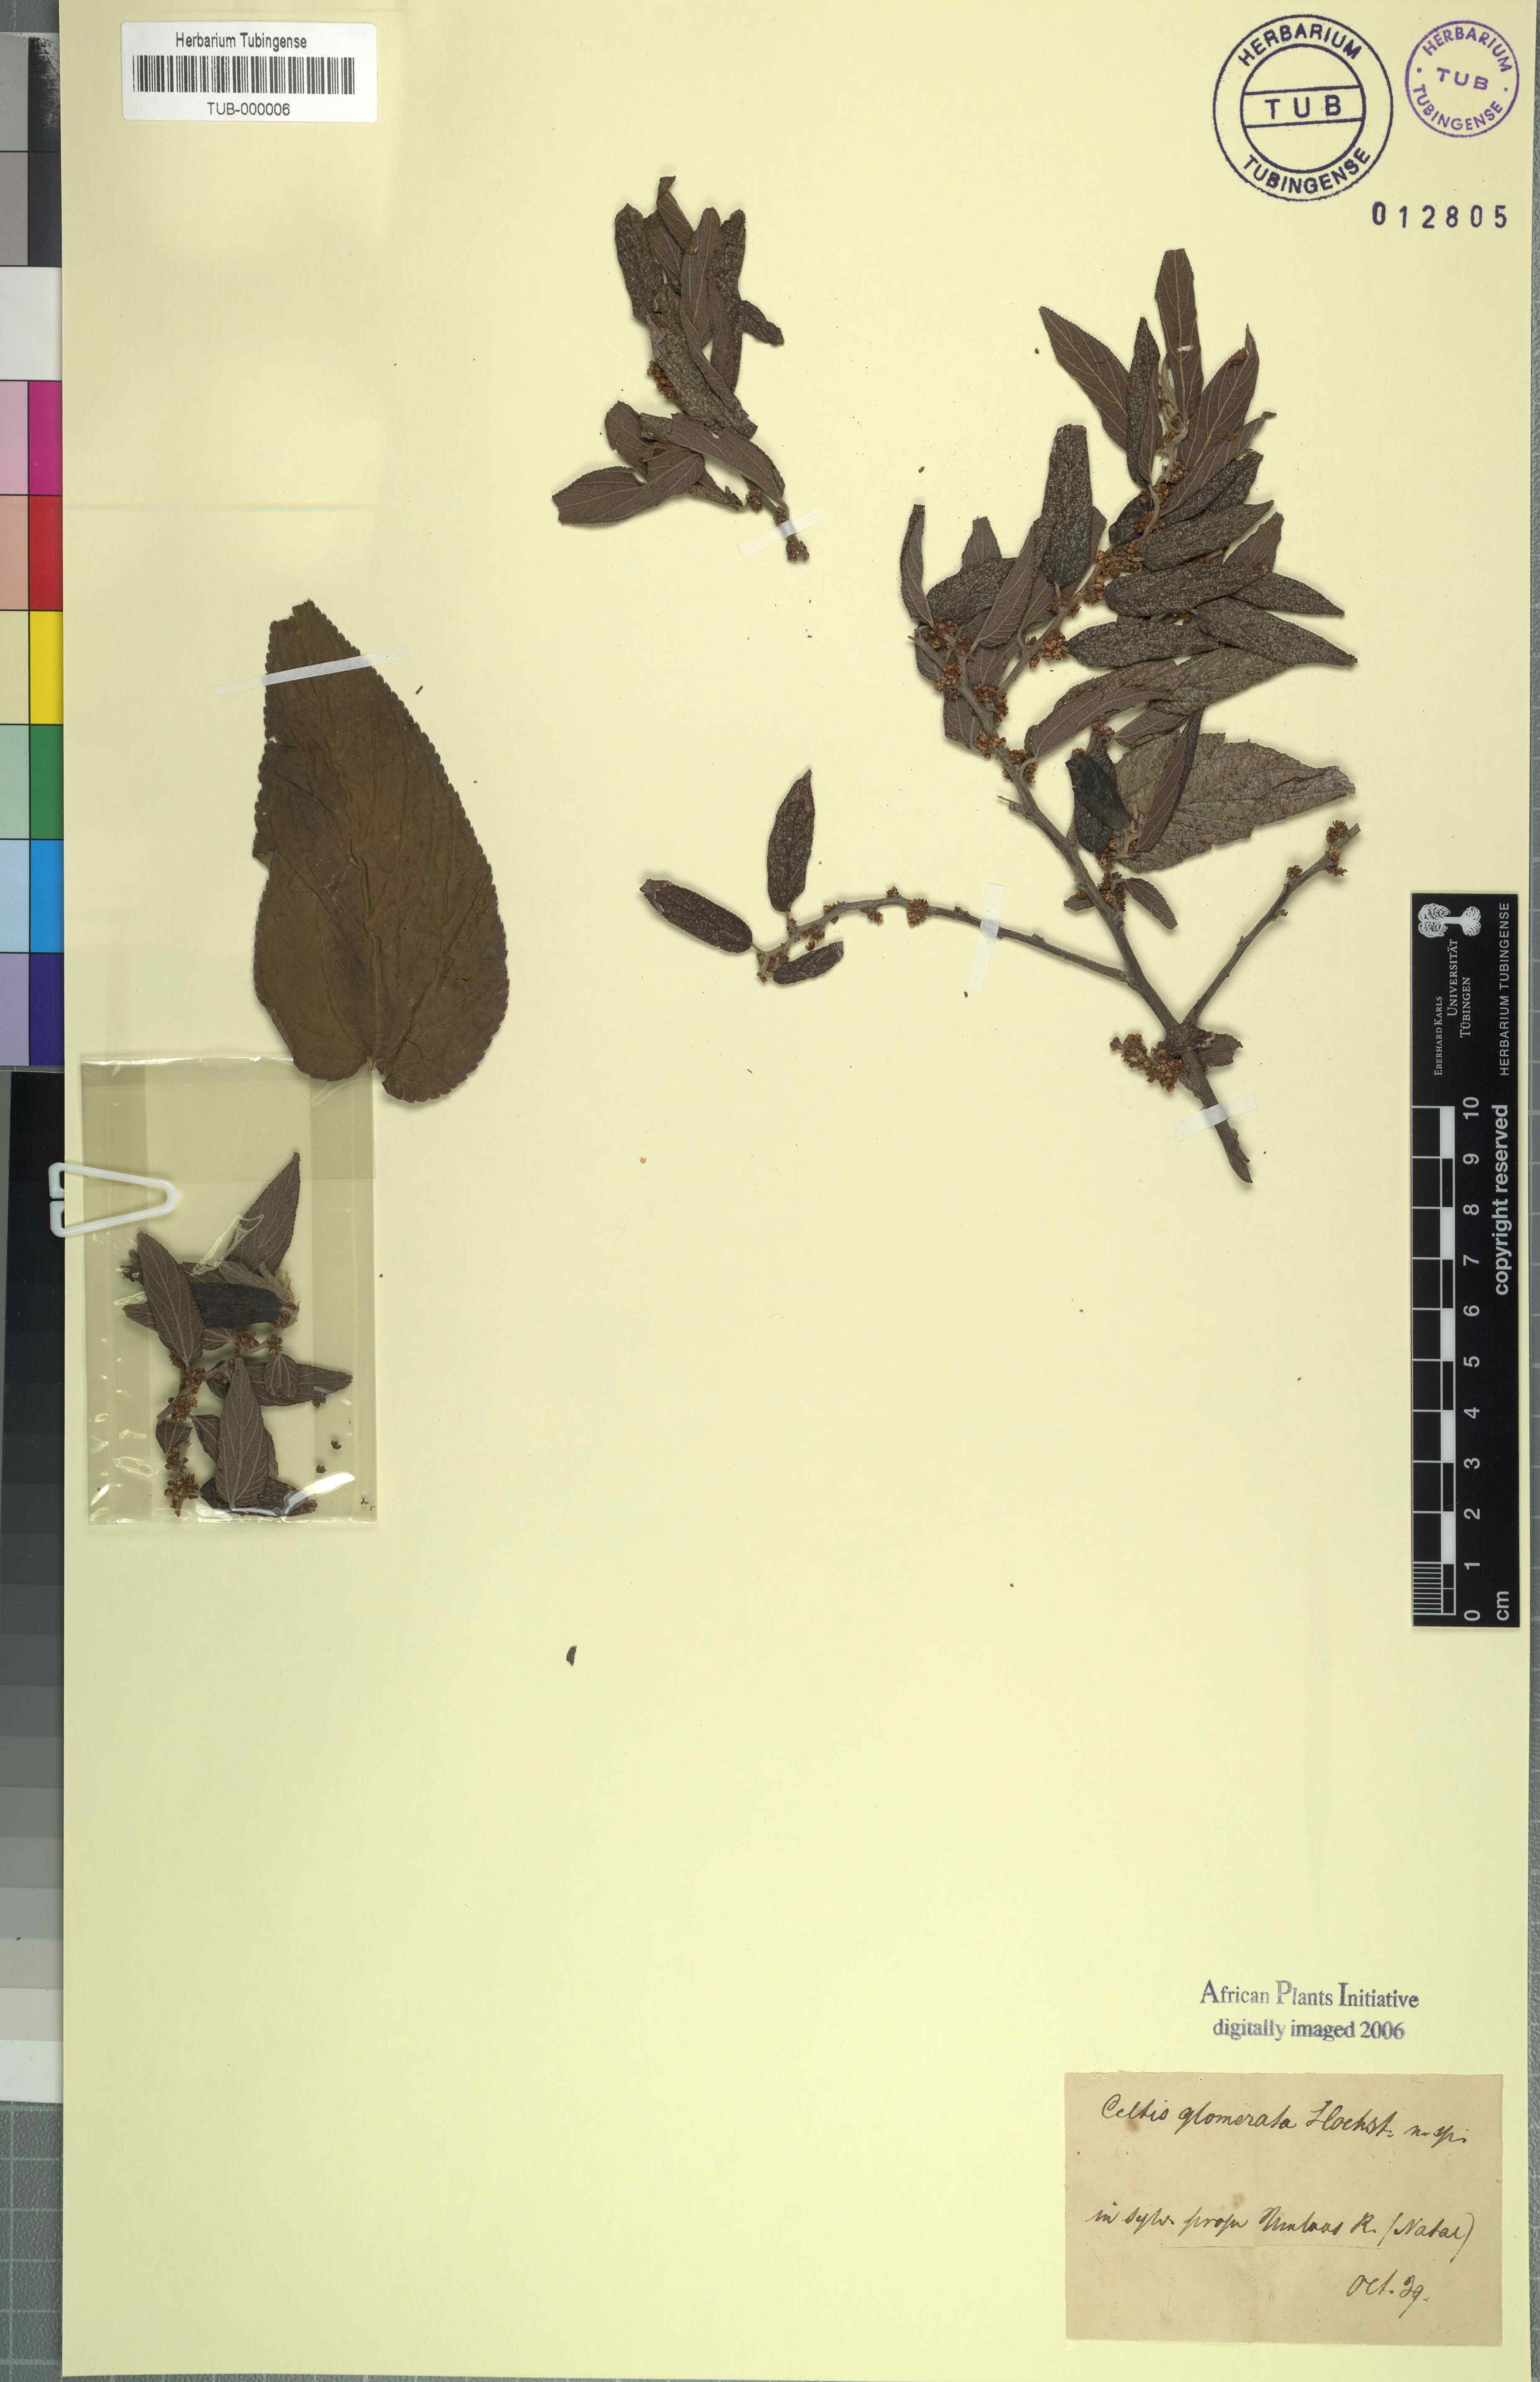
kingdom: Plantae
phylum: Tracheophyta
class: Magnoliopsida
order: Rosales
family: Cannabaceae
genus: Trema
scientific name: Trema orientale
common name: Indian charcoal tree
